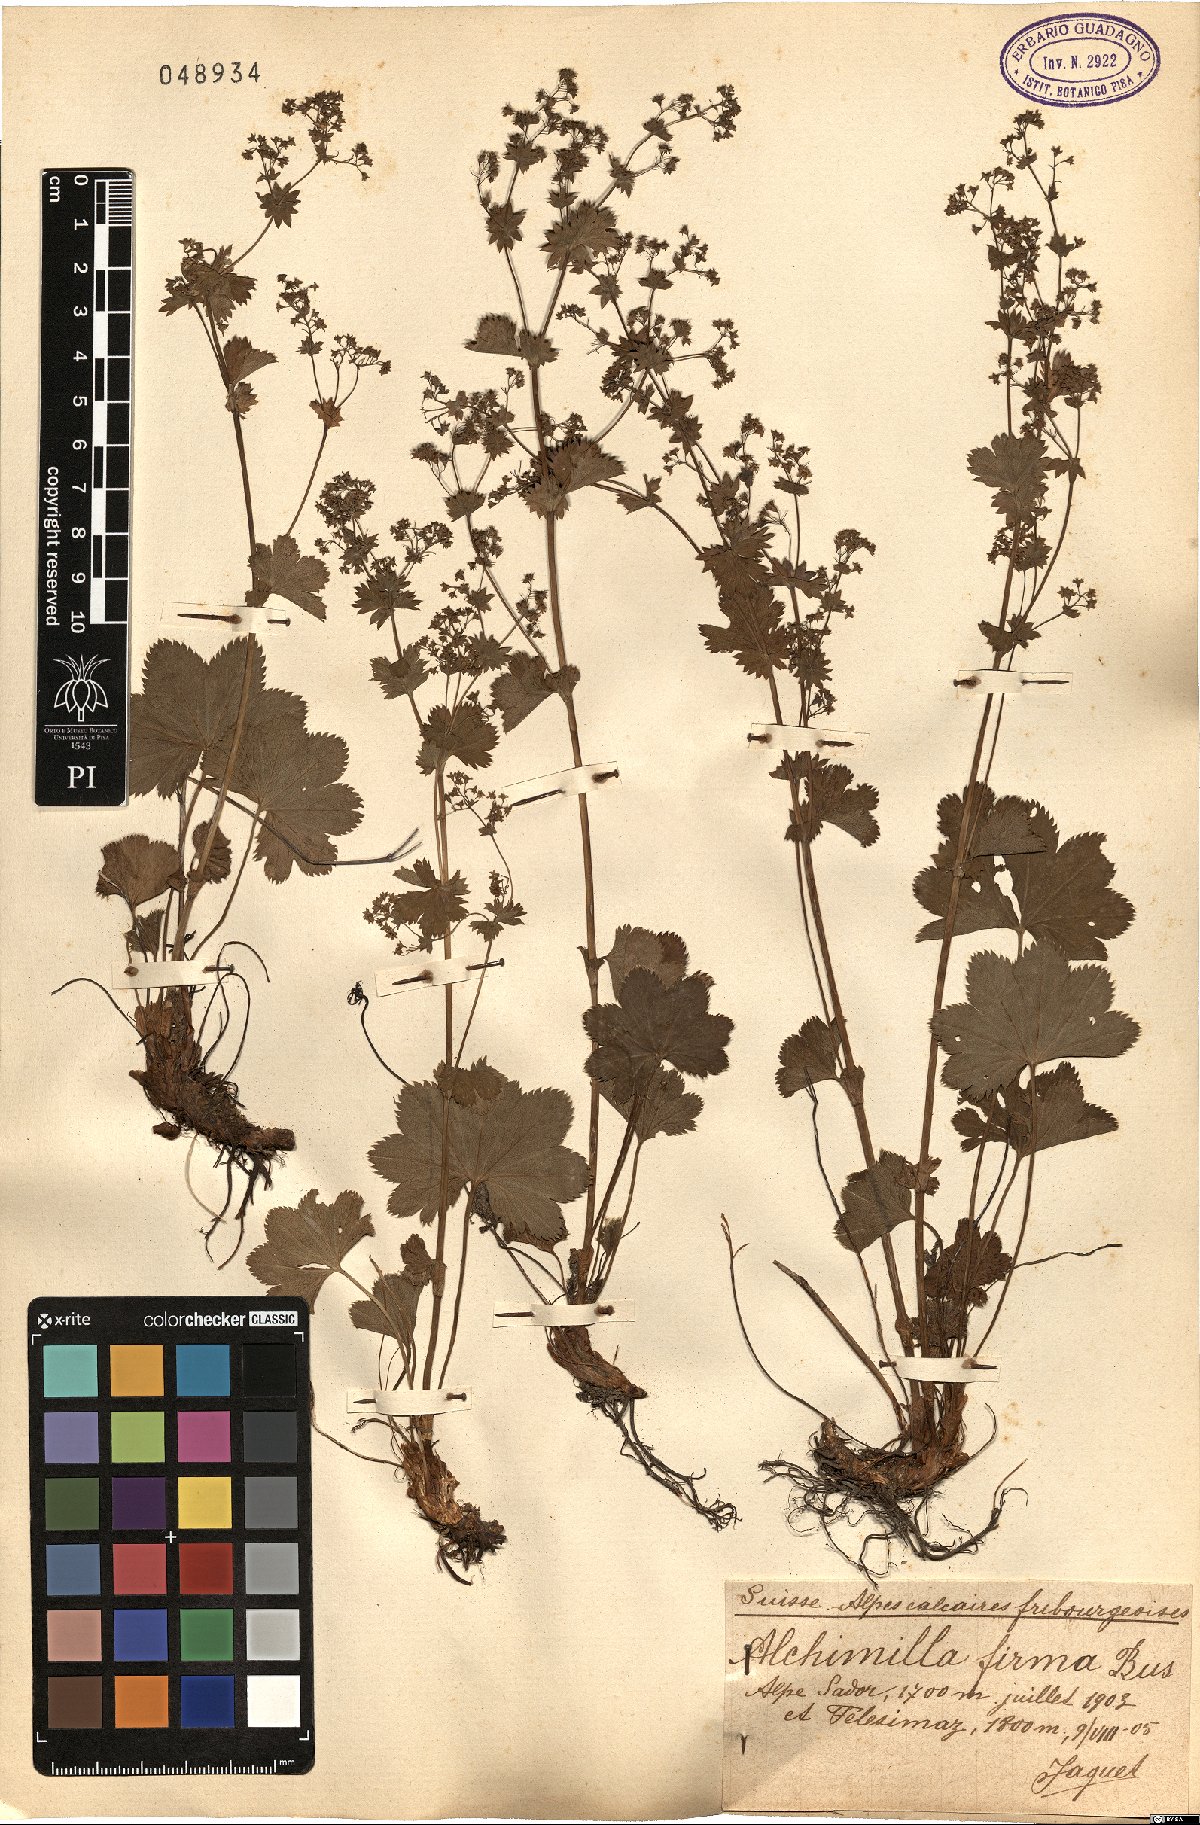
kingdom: Plantae
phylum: Tracheophyta
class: Magnoliopsida
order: Rosales
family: Rosaceae
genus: Alchemilla
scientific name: Alchemilla firma
